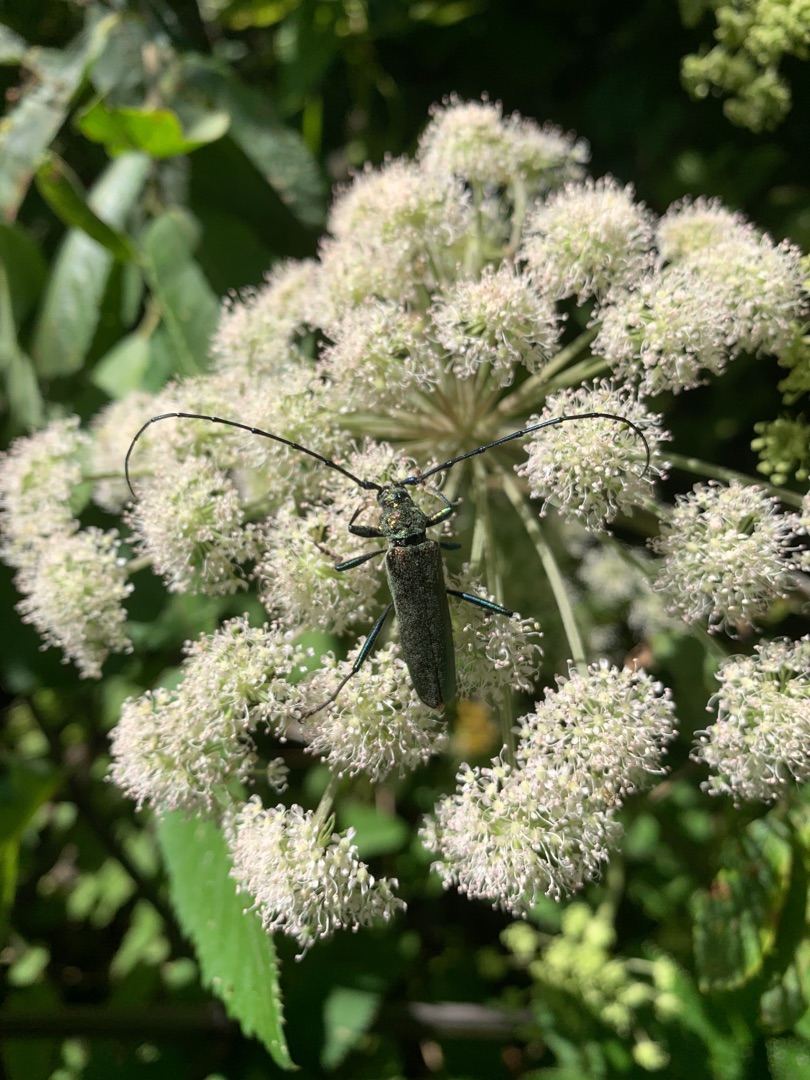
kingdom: Animalia
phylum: Arthropoda
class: Insecta
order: Coleoptera
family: Cerambycidae
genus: Aromia
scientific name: Aromia moschata
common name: Moskusbuk
